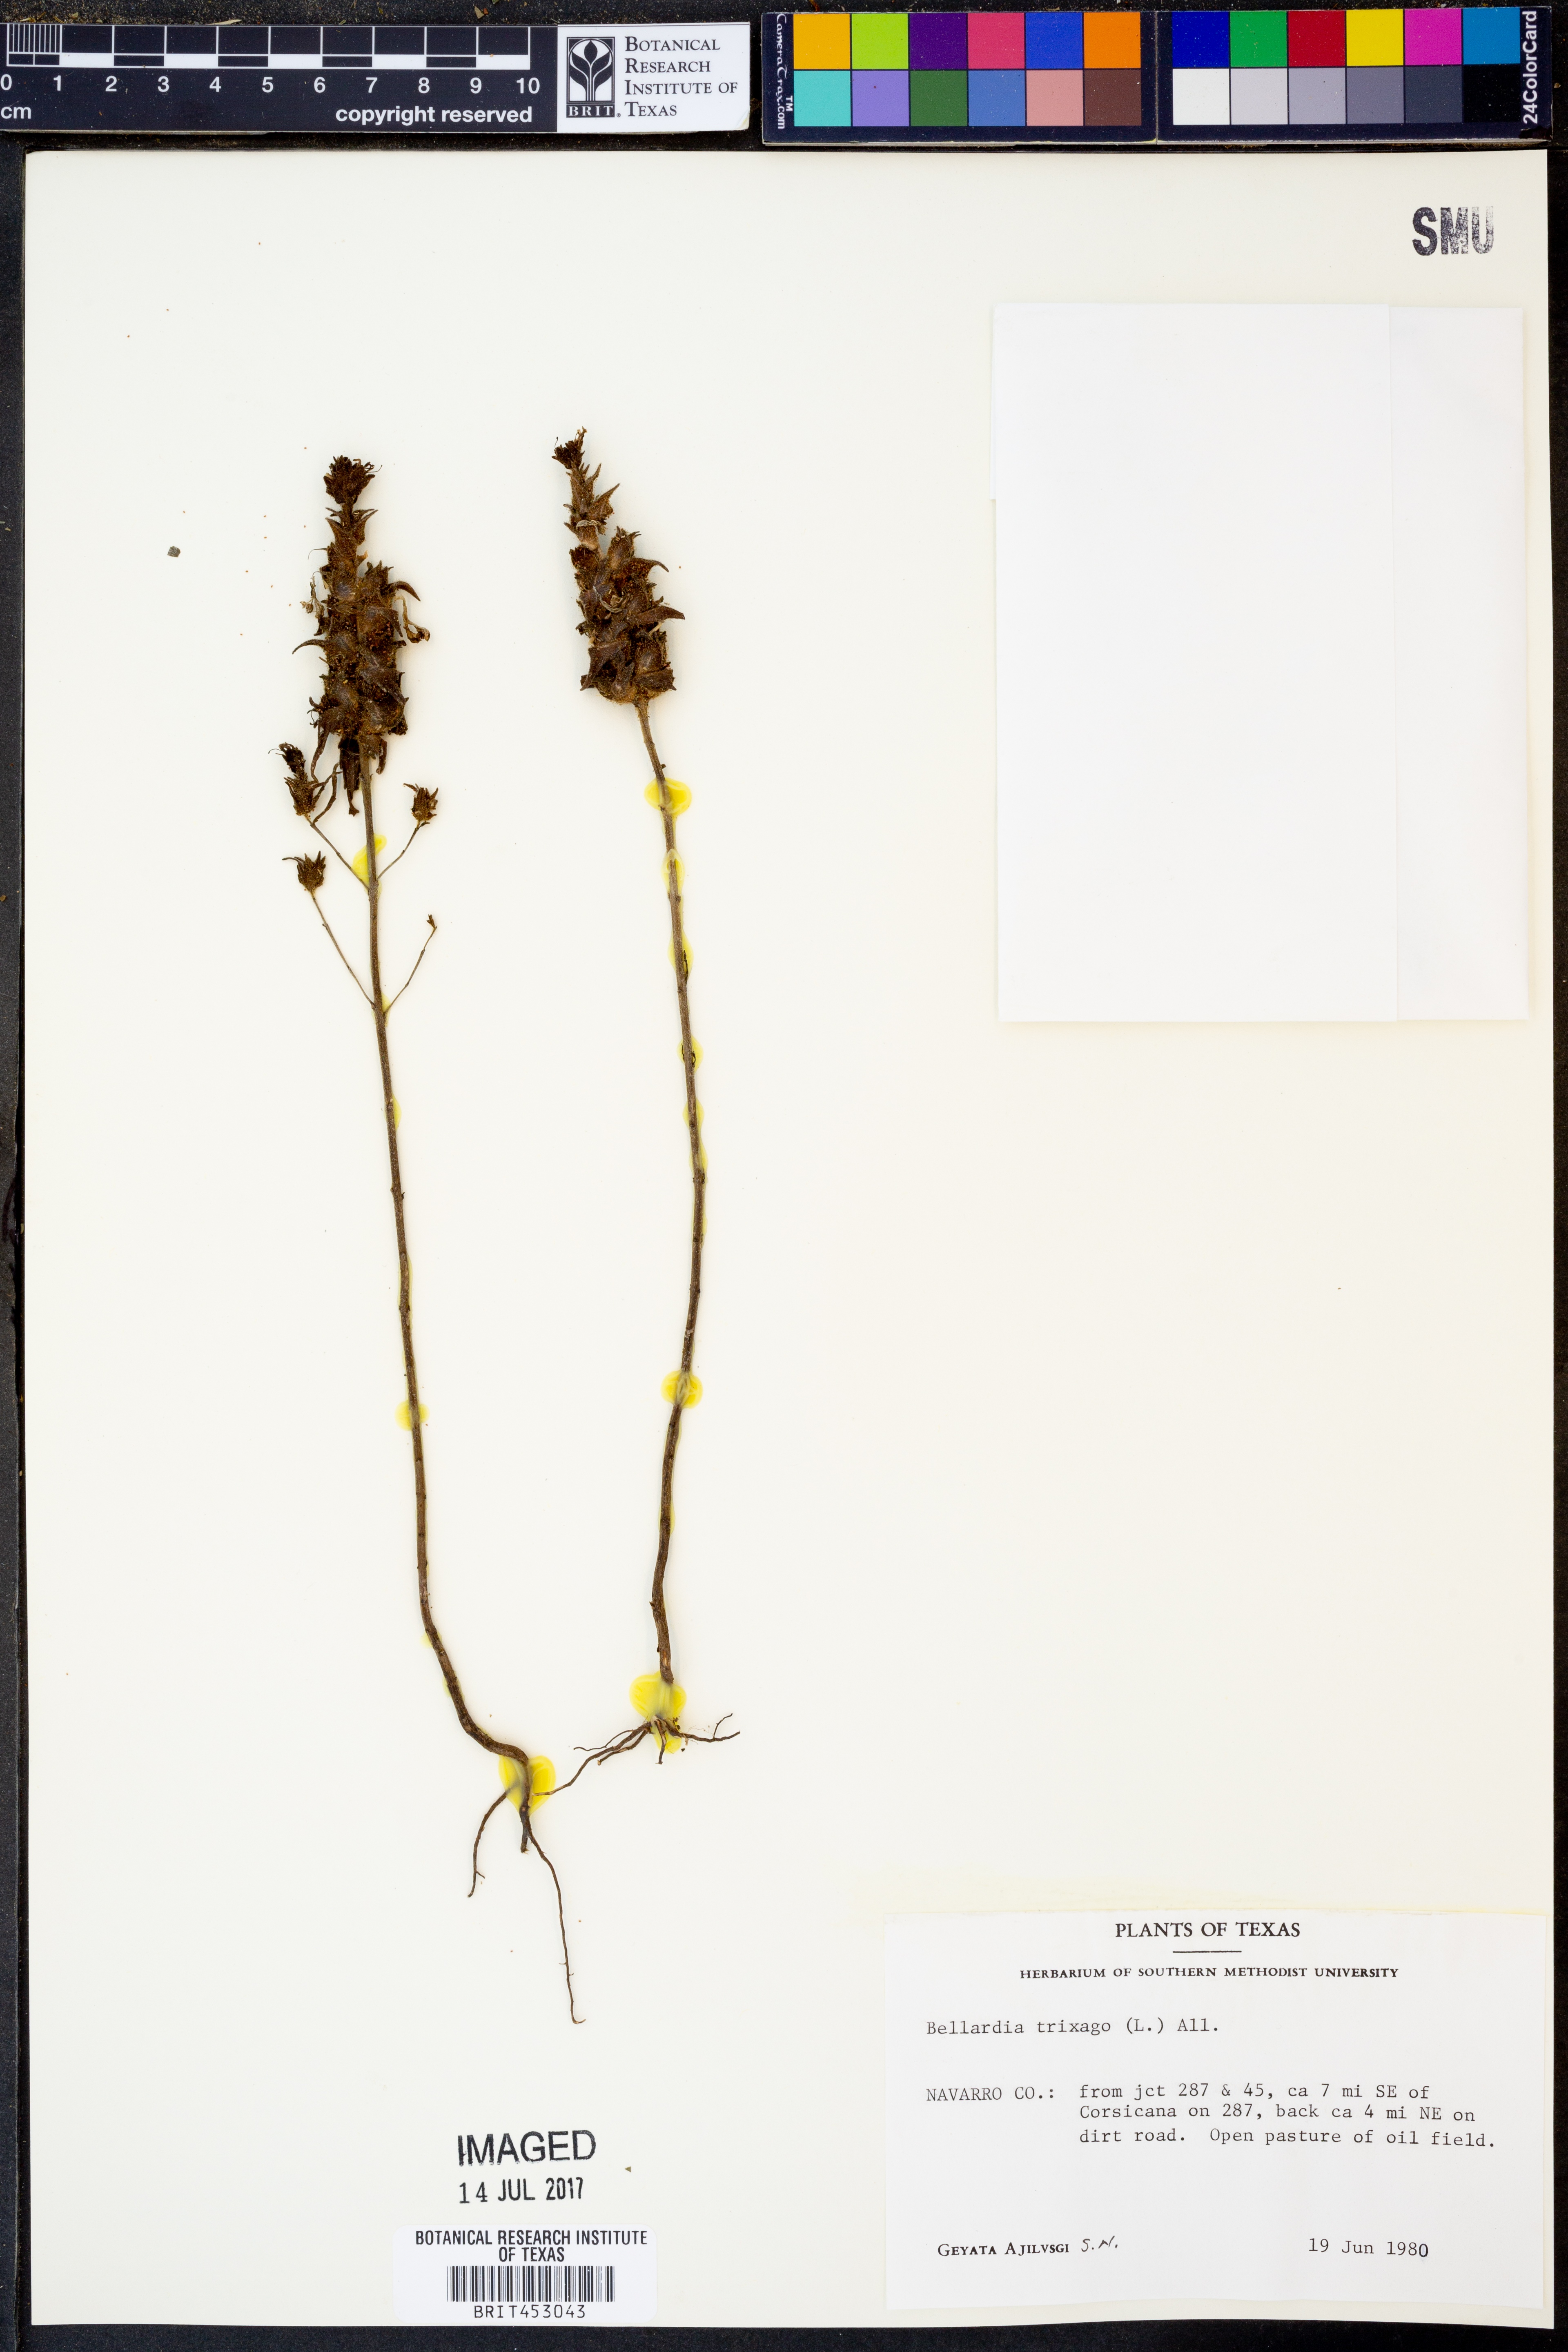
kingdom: Plantae
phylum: Tracheophyta
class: Magnoliopsida
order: Lamiales
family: Orobanchaceae
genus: Bellardia
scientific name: Bellardia trixago
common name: Mediterranean lineseed
